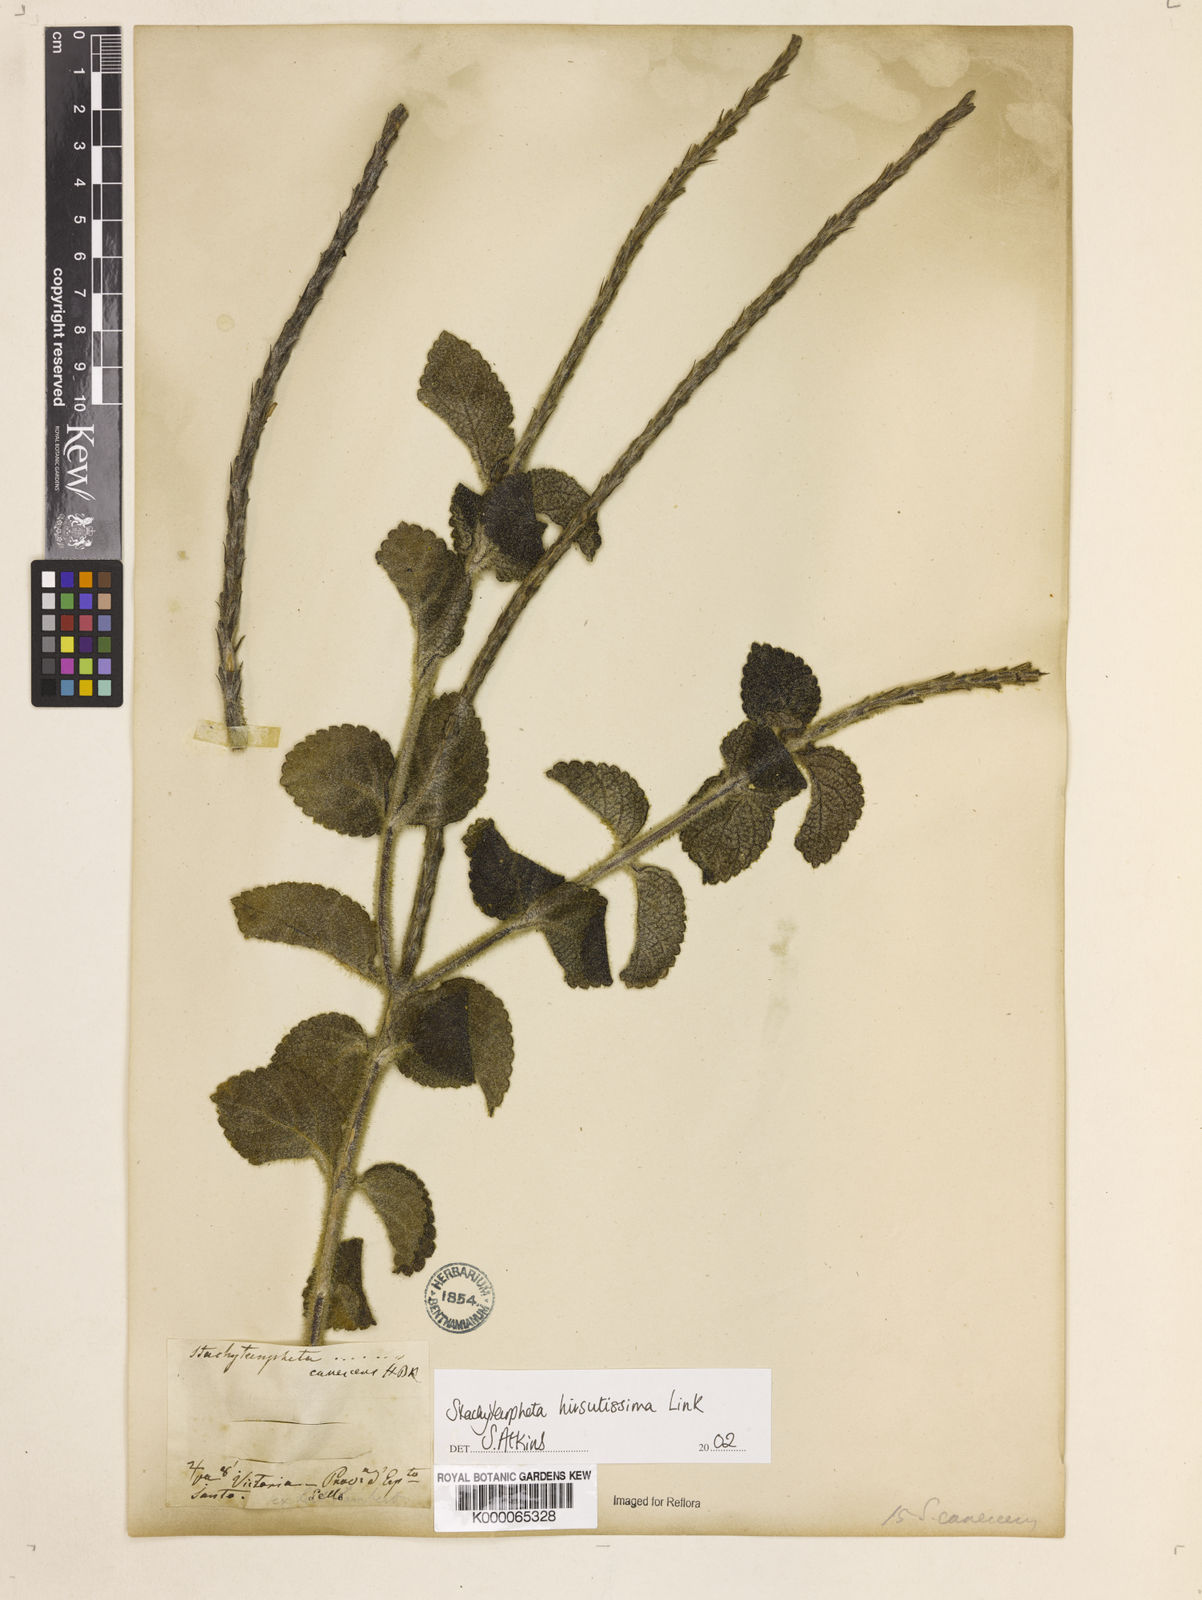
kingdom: Plantae
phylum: Tracheophyta
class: Magnoliopsida
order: Lamiales
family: Verbenaceae
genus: Stachytarpheta
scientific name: Stachytarpheta hirsutissima
